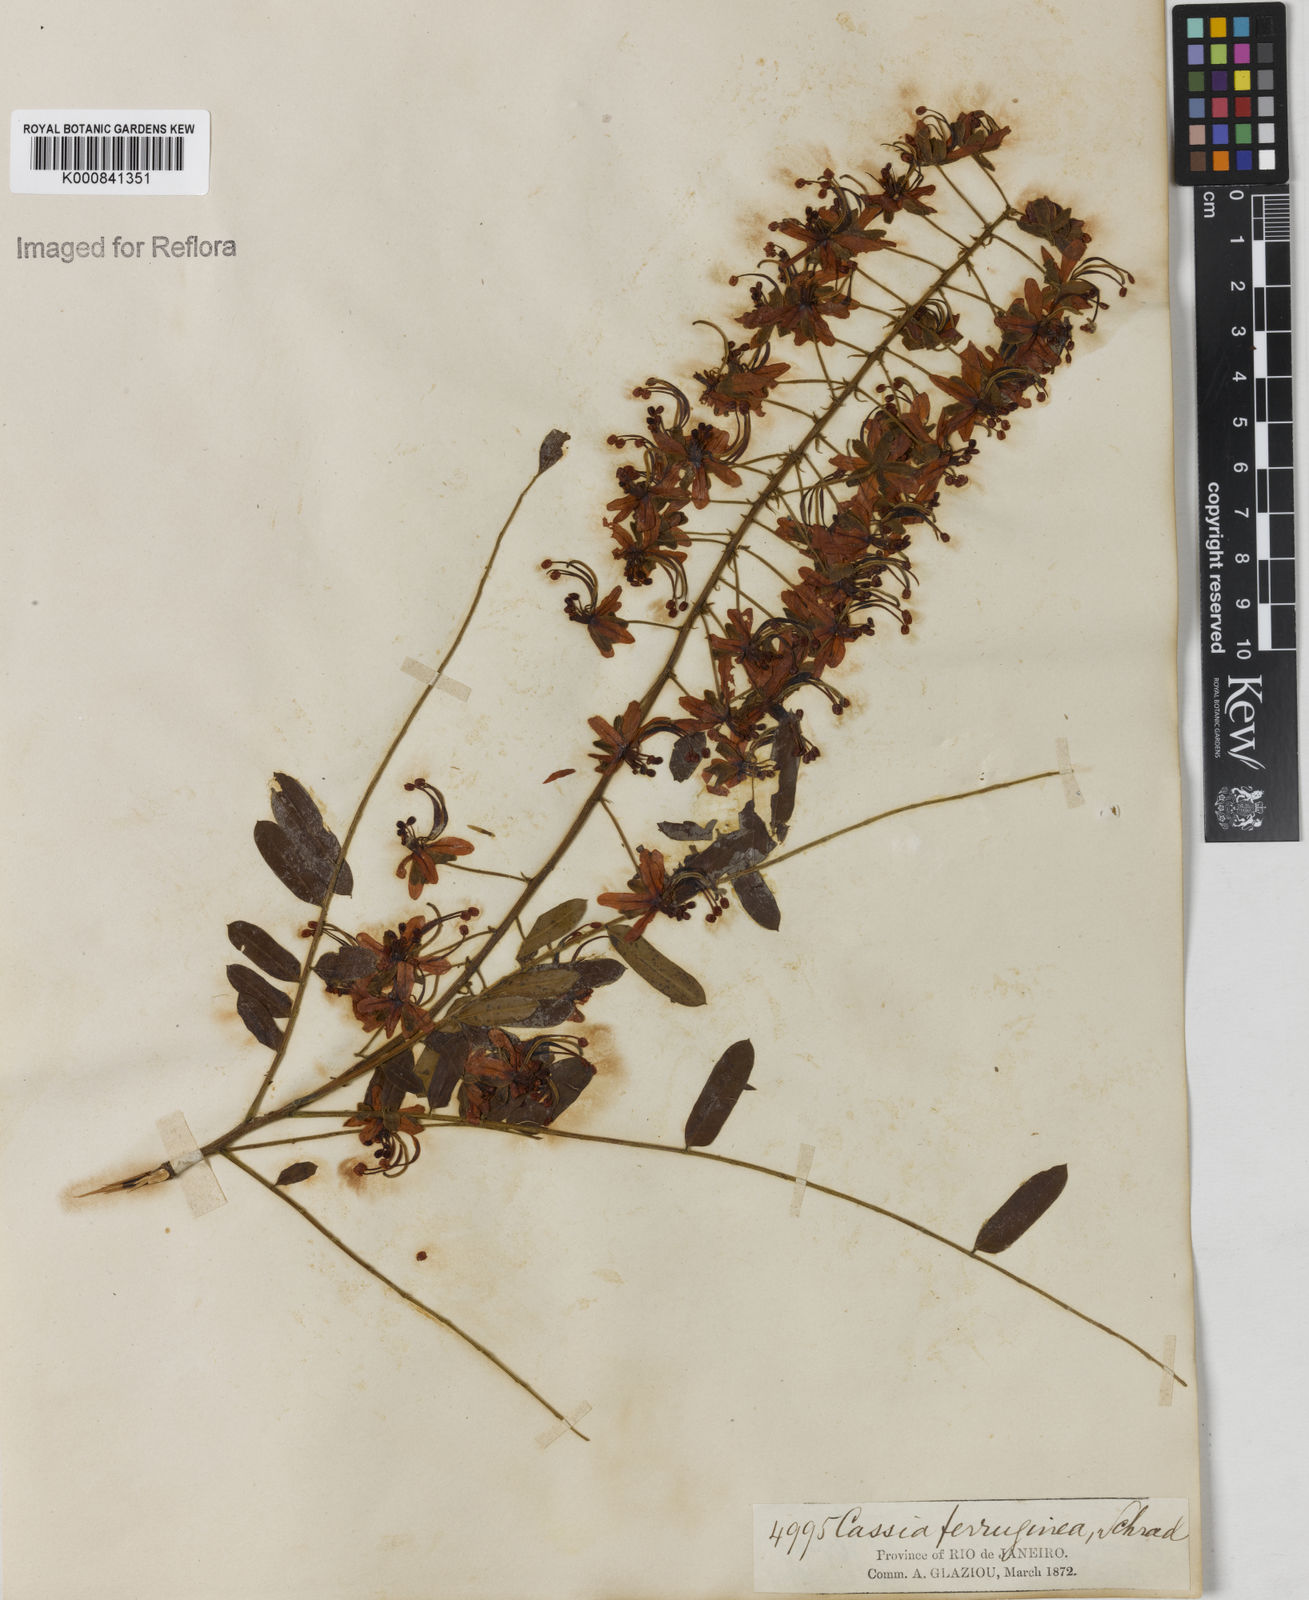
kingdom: Plantae
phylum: Tracheophyta
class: Magnoliopsida
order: Fabales
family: Fabaceae
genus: Cassia
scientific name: Cassia ferruginea
